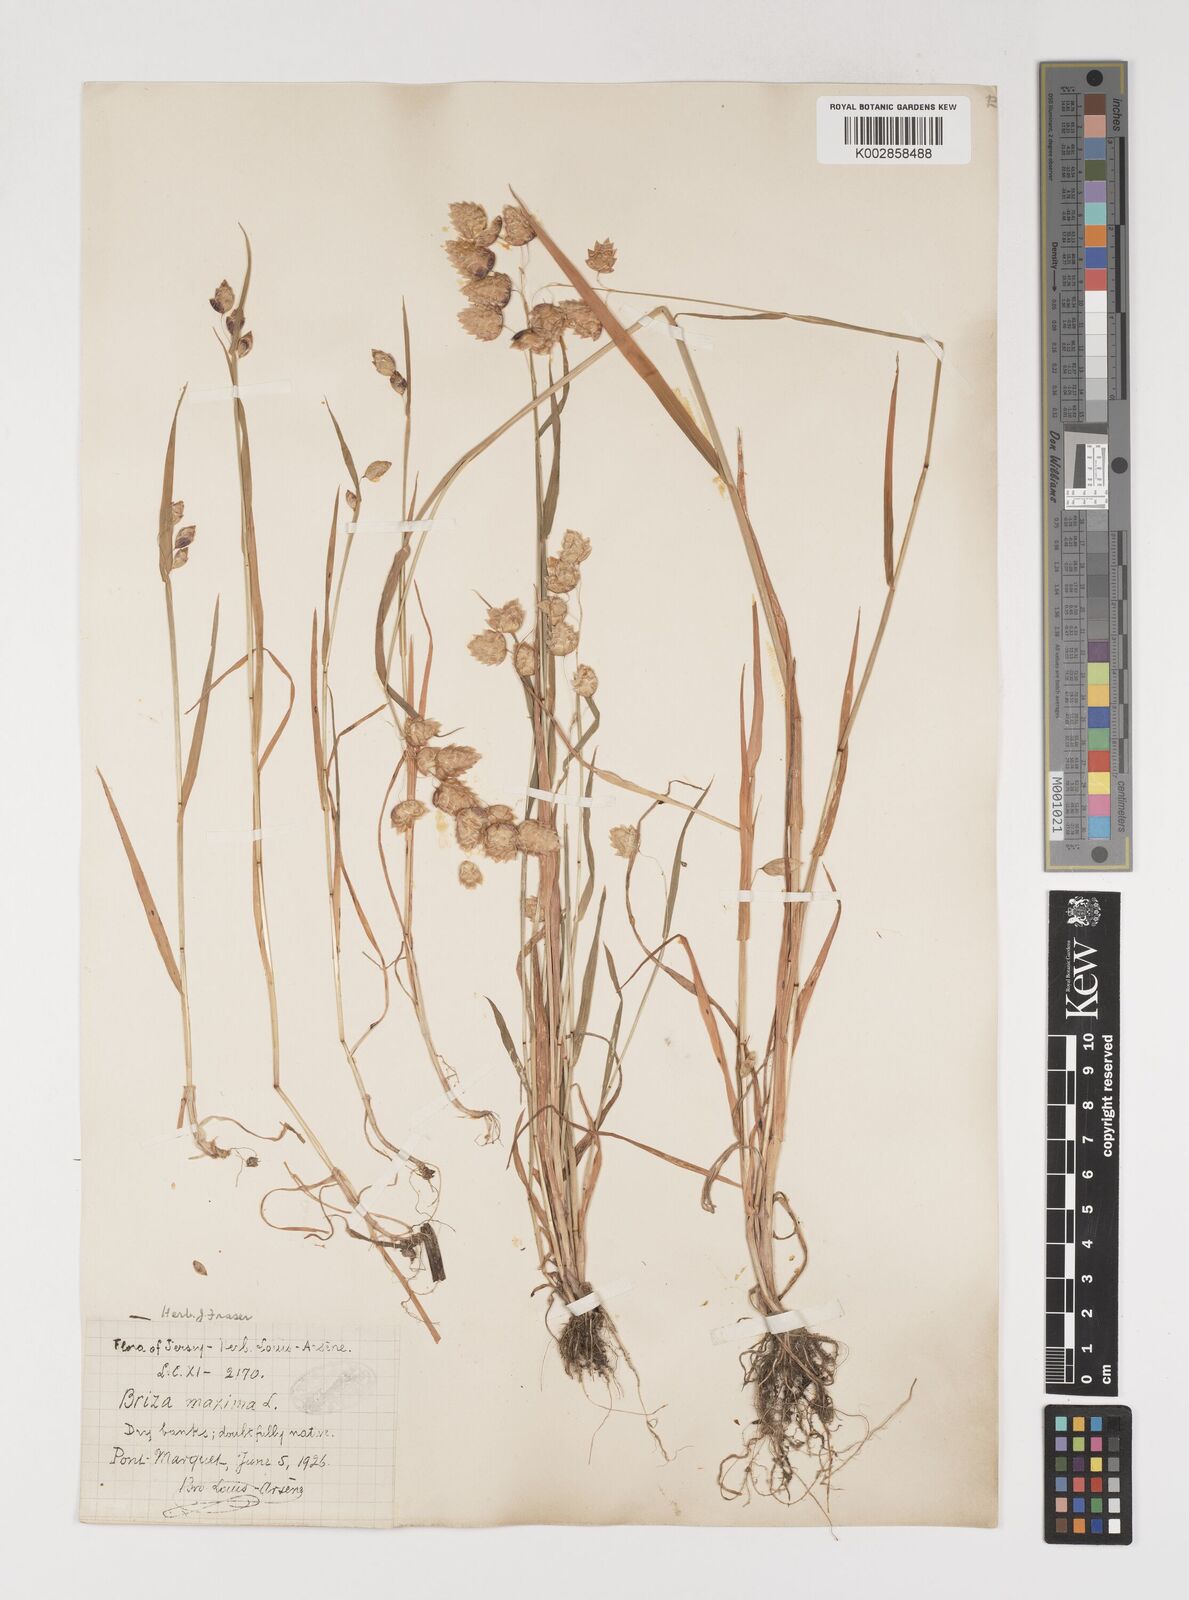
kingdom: Plantae
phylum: Tracheophyta
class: Liliopsida
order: Poales
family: Poaceae
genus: Briza
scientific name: Briza maxima
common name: Big quakinggrass
